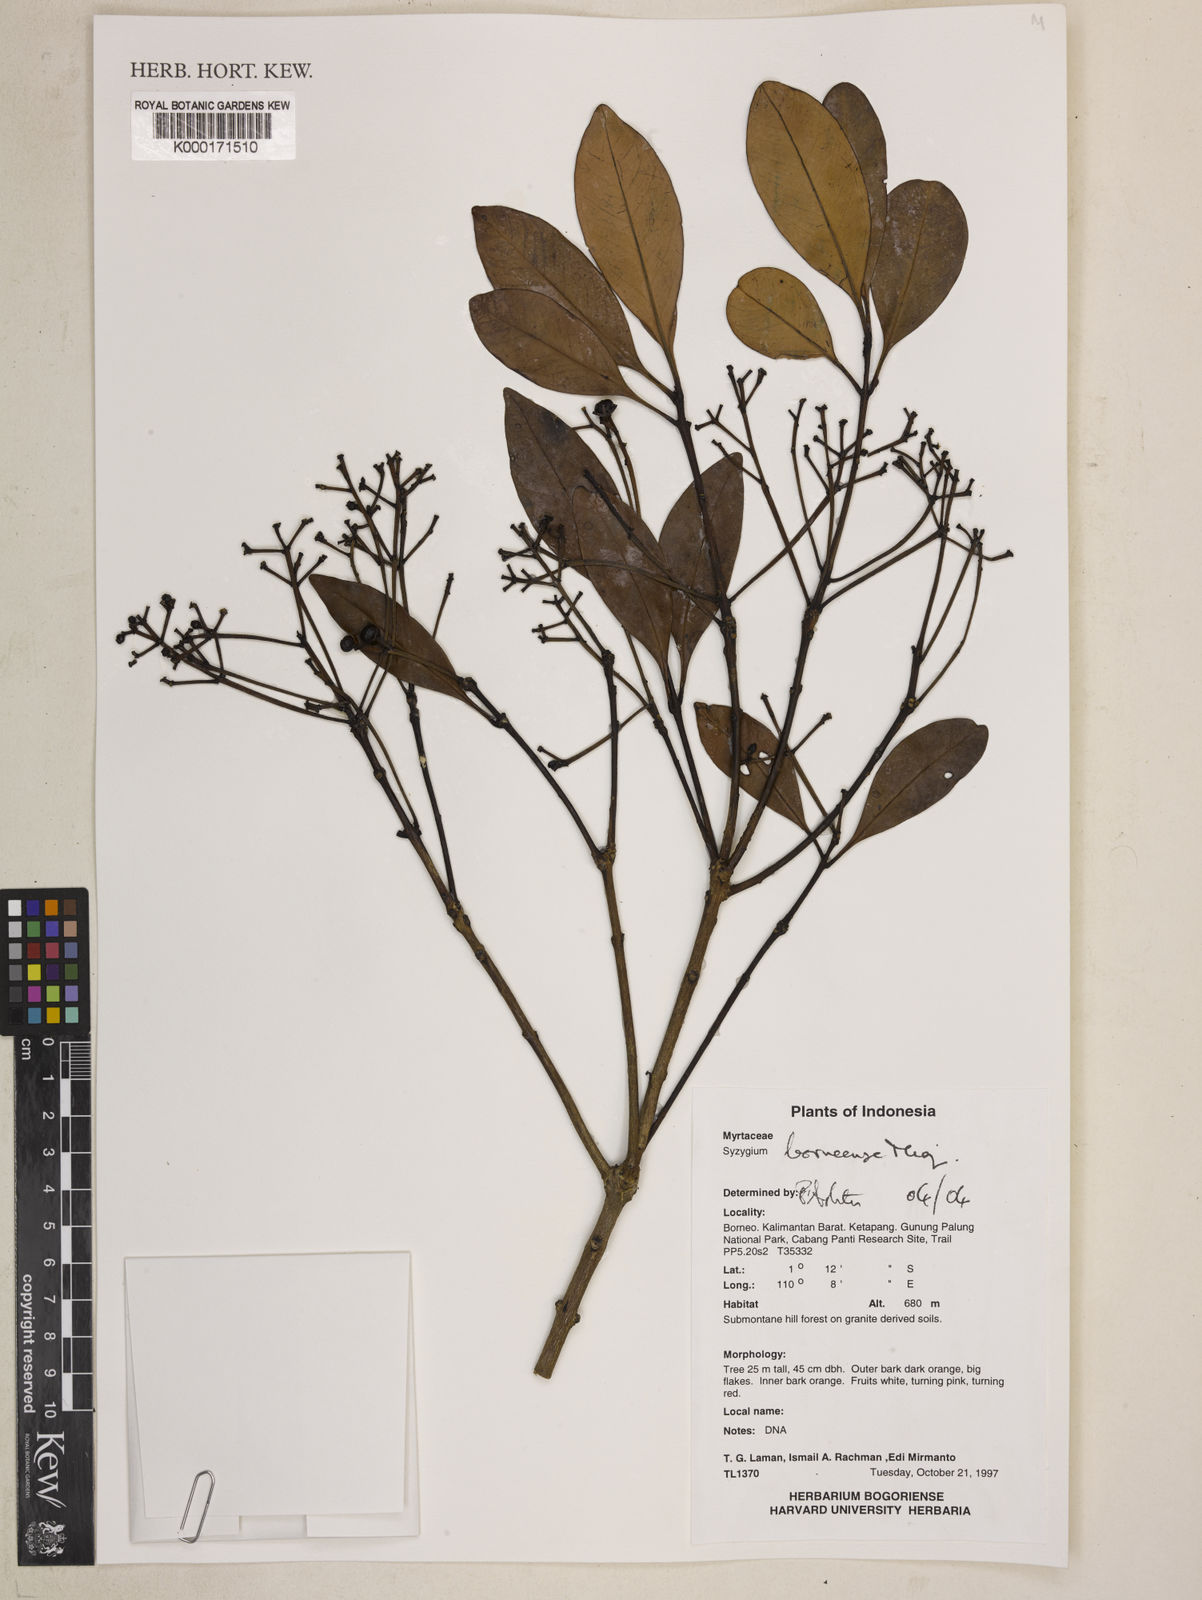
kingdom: Plantae
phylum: Tracheophyta
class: Magnoliopsida
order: Myrtales
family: Myrtaceae
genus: Syzygium
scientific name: Syzygium borneense
